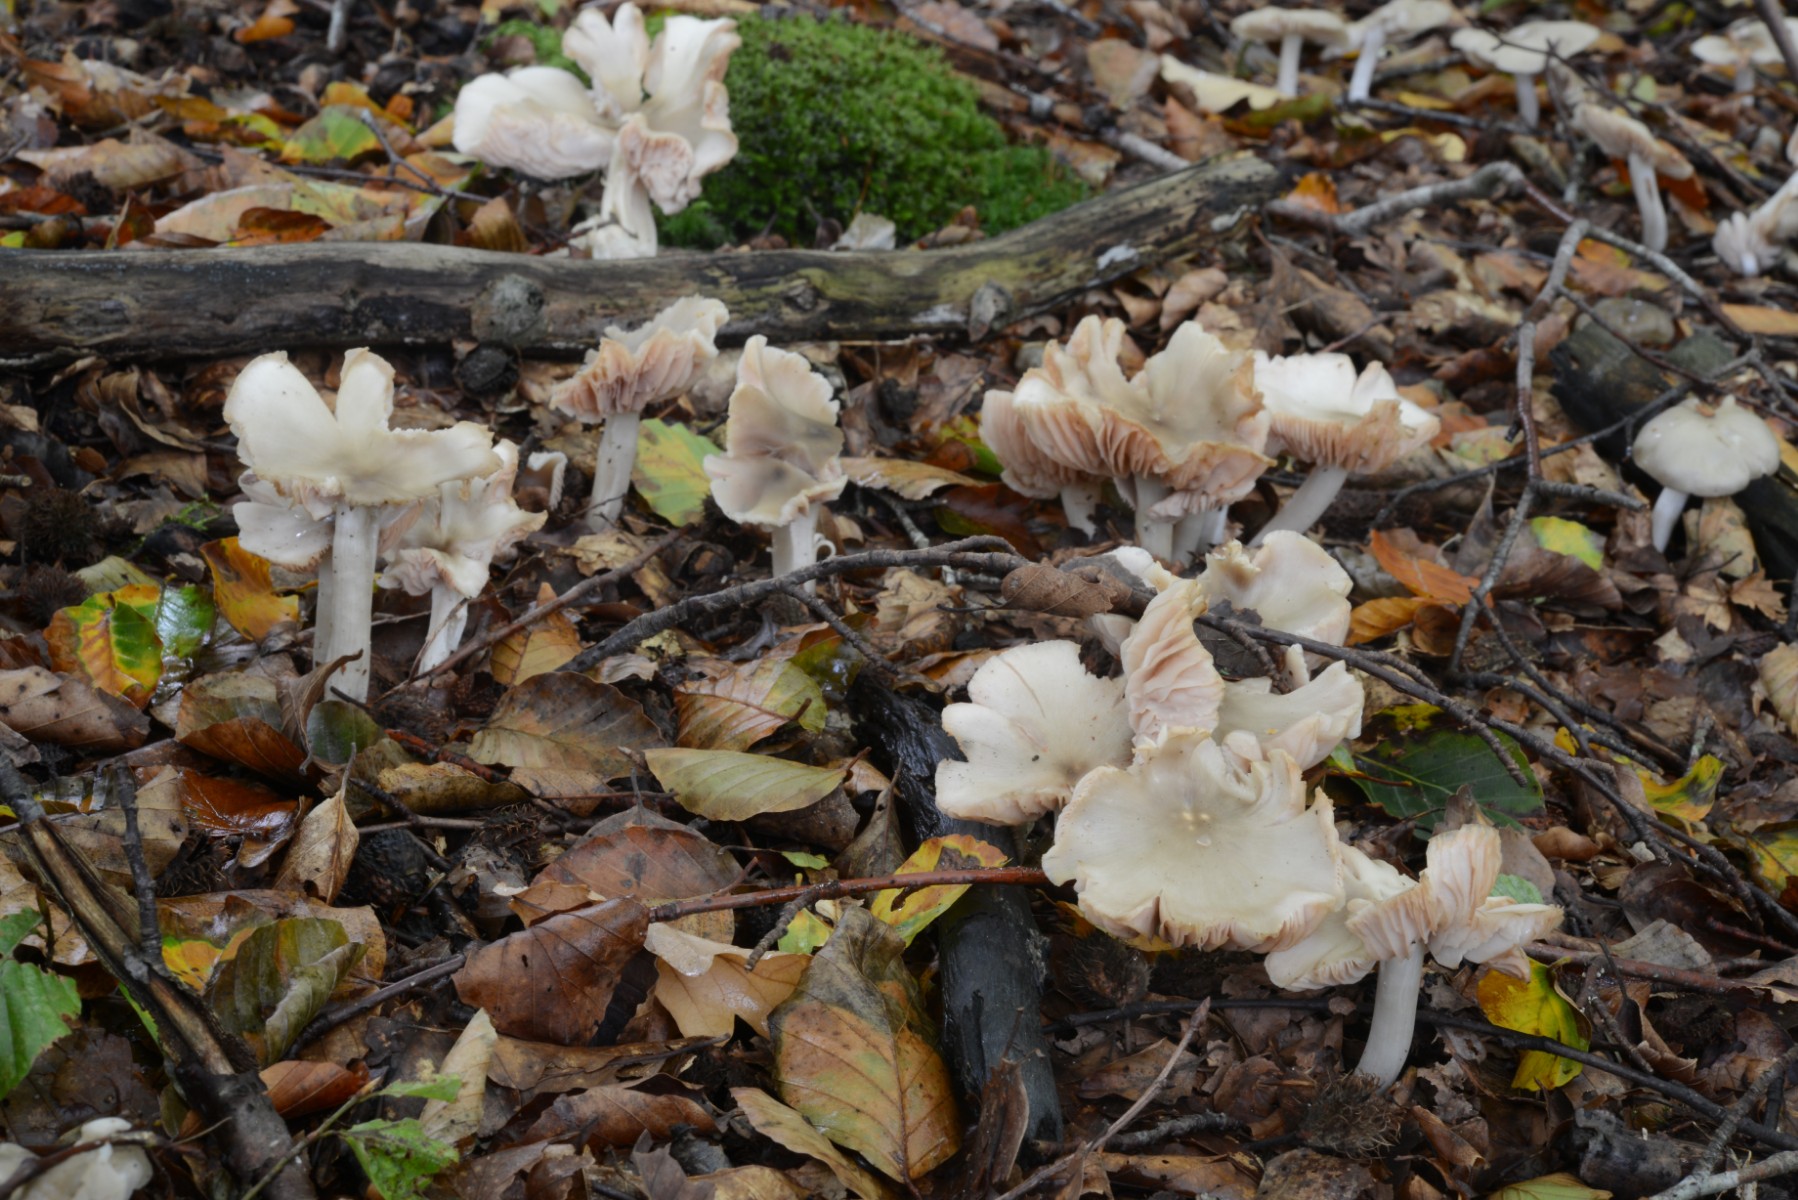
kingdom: Fungi
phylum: Basidiomycota
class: Agaricomycetes
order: Agaricales
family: Entolomataceae
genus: Entoloma
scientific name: Entoloma noordeloosii
